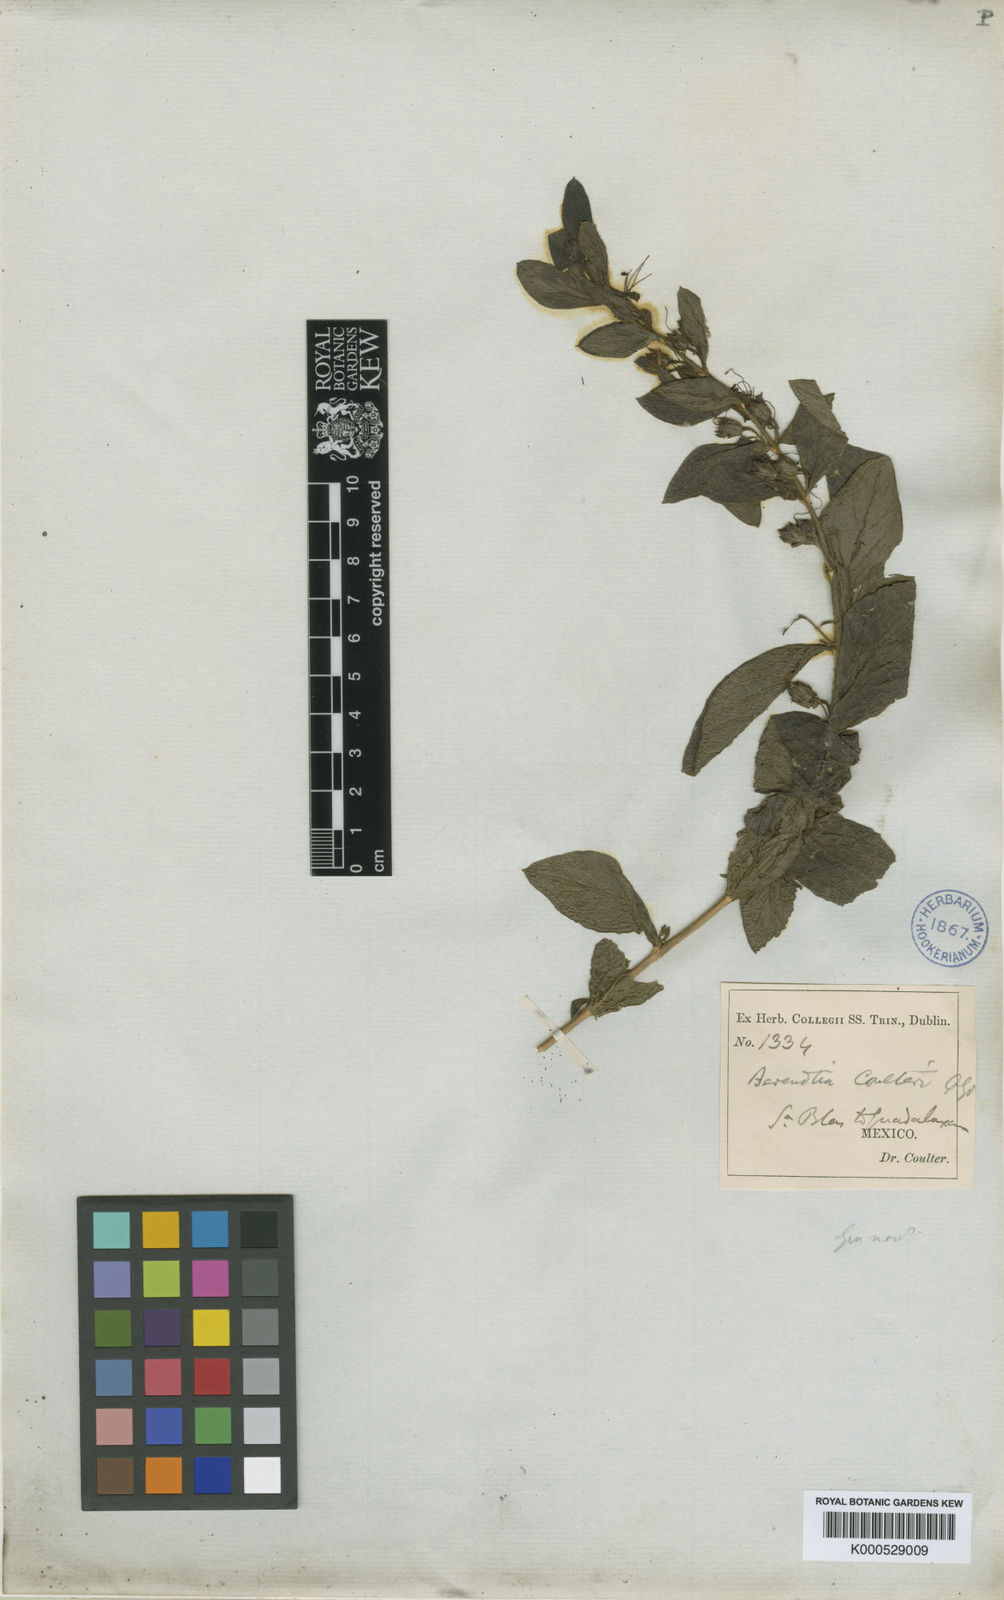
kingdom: Plantae
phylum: Tracheophyta
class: Magnoliopsida
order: Lamiales
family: Phrymaceae
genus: Hemichaena
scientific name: Hemichaena coulteri
